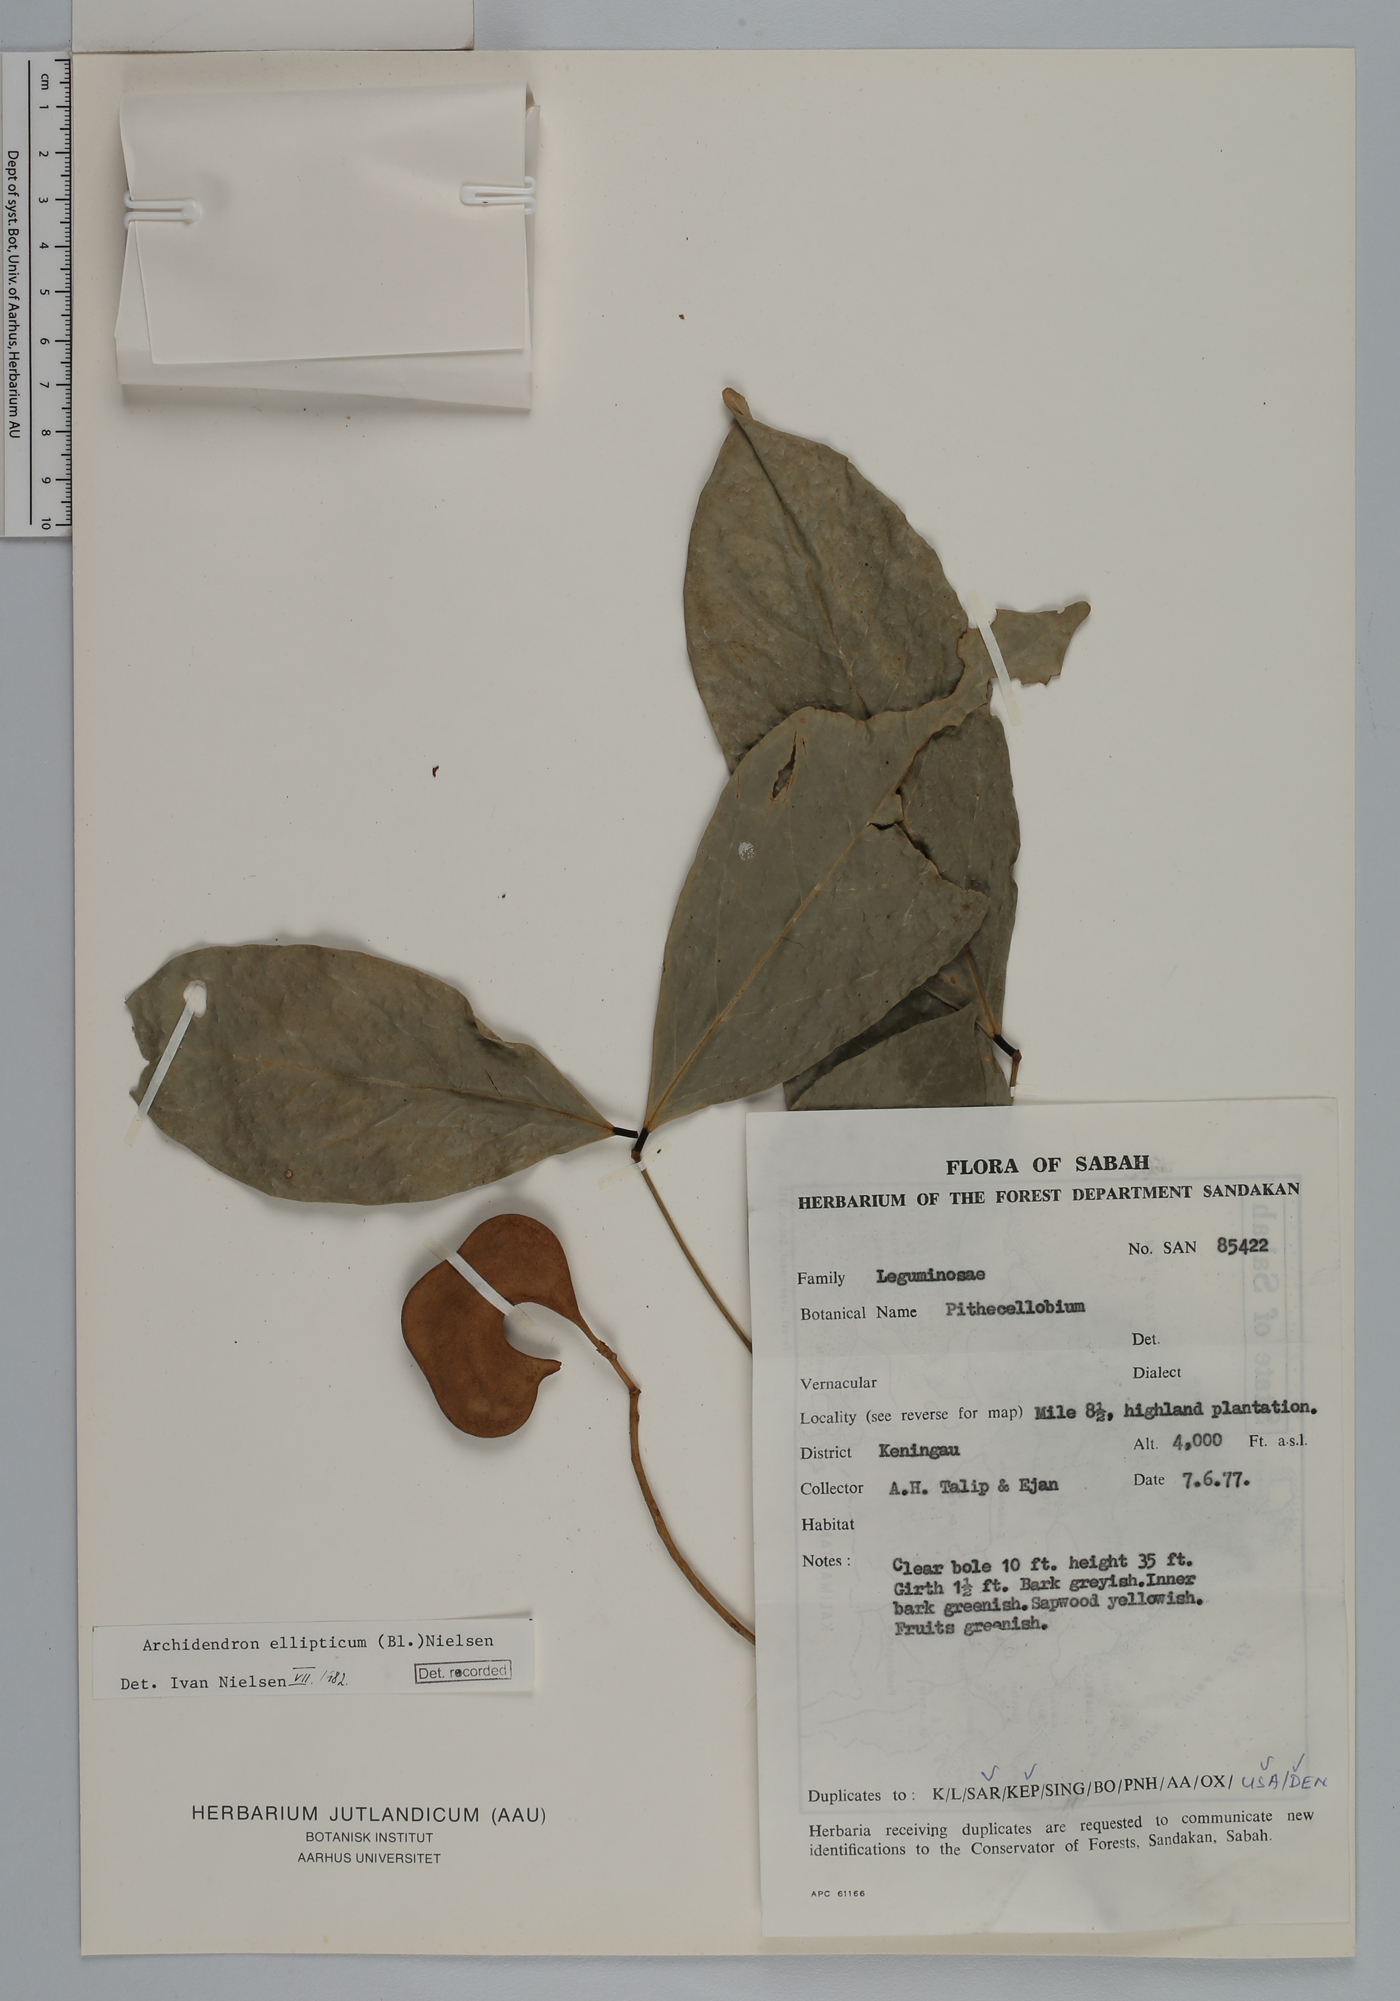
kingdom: Plantae
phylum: Tracheophyta
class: Magnoliopsida
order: Fabales
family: Fabaceae
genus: Archidendron
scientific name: Archidendron ellipticum
